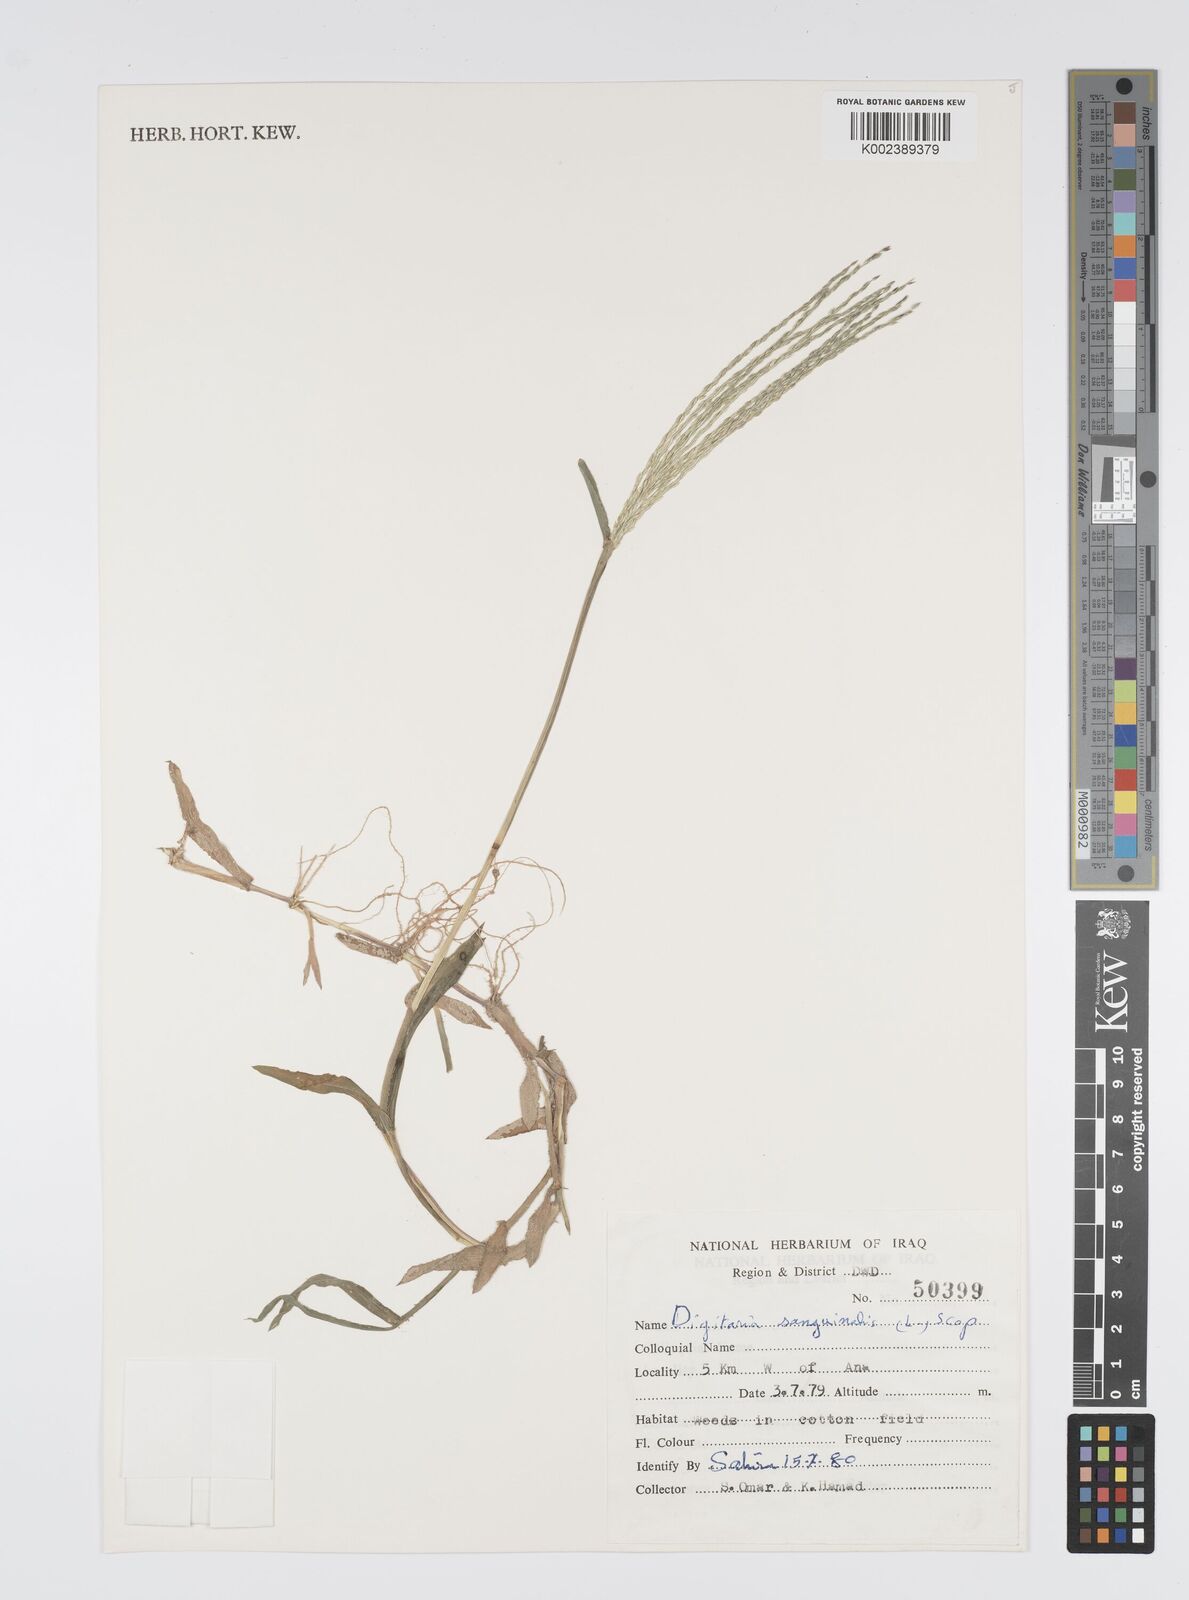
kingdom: Plantae
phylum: Tracheophyta
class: Liliopsida
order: Poales
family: Poaceae
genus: Digitaria
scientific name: Digitaria sanguinalis
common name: Hairy crabgrass
